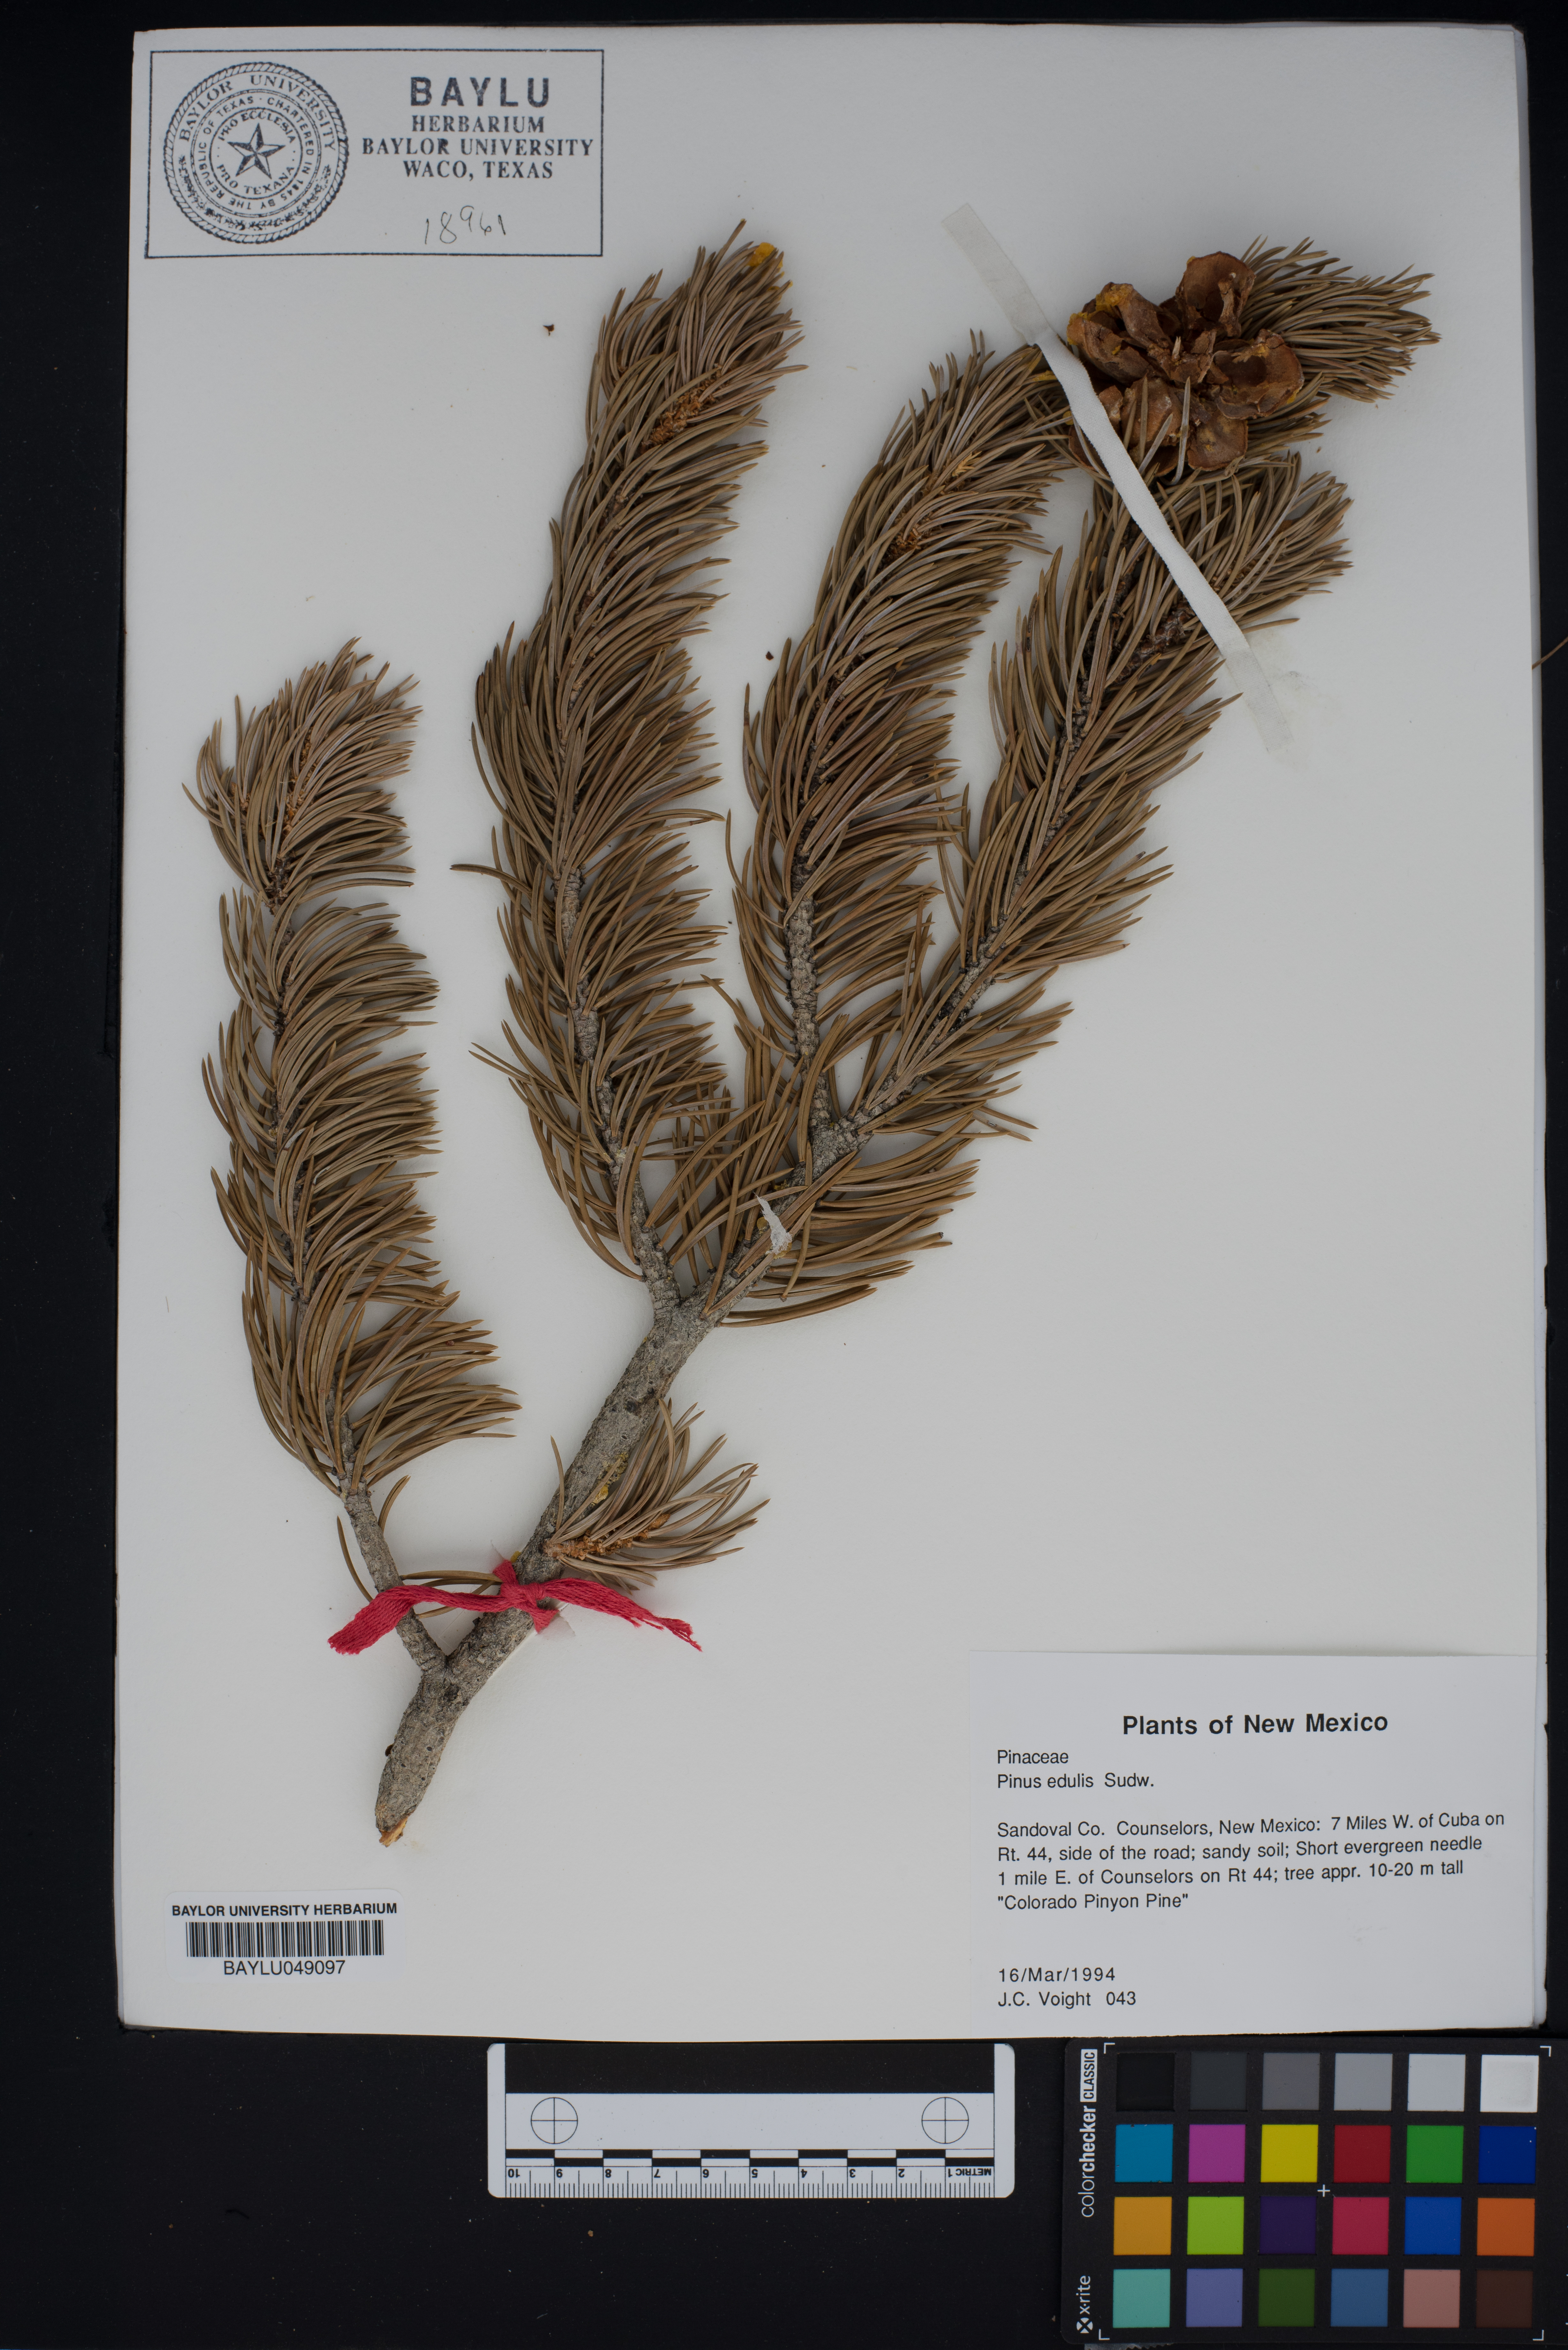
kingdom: Plantae
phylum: Tracheophyta
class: Pinopsida
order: Pinales
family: Pinaceae
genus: Pinus
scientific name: Pinus edulis
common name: Colorado pinyon
